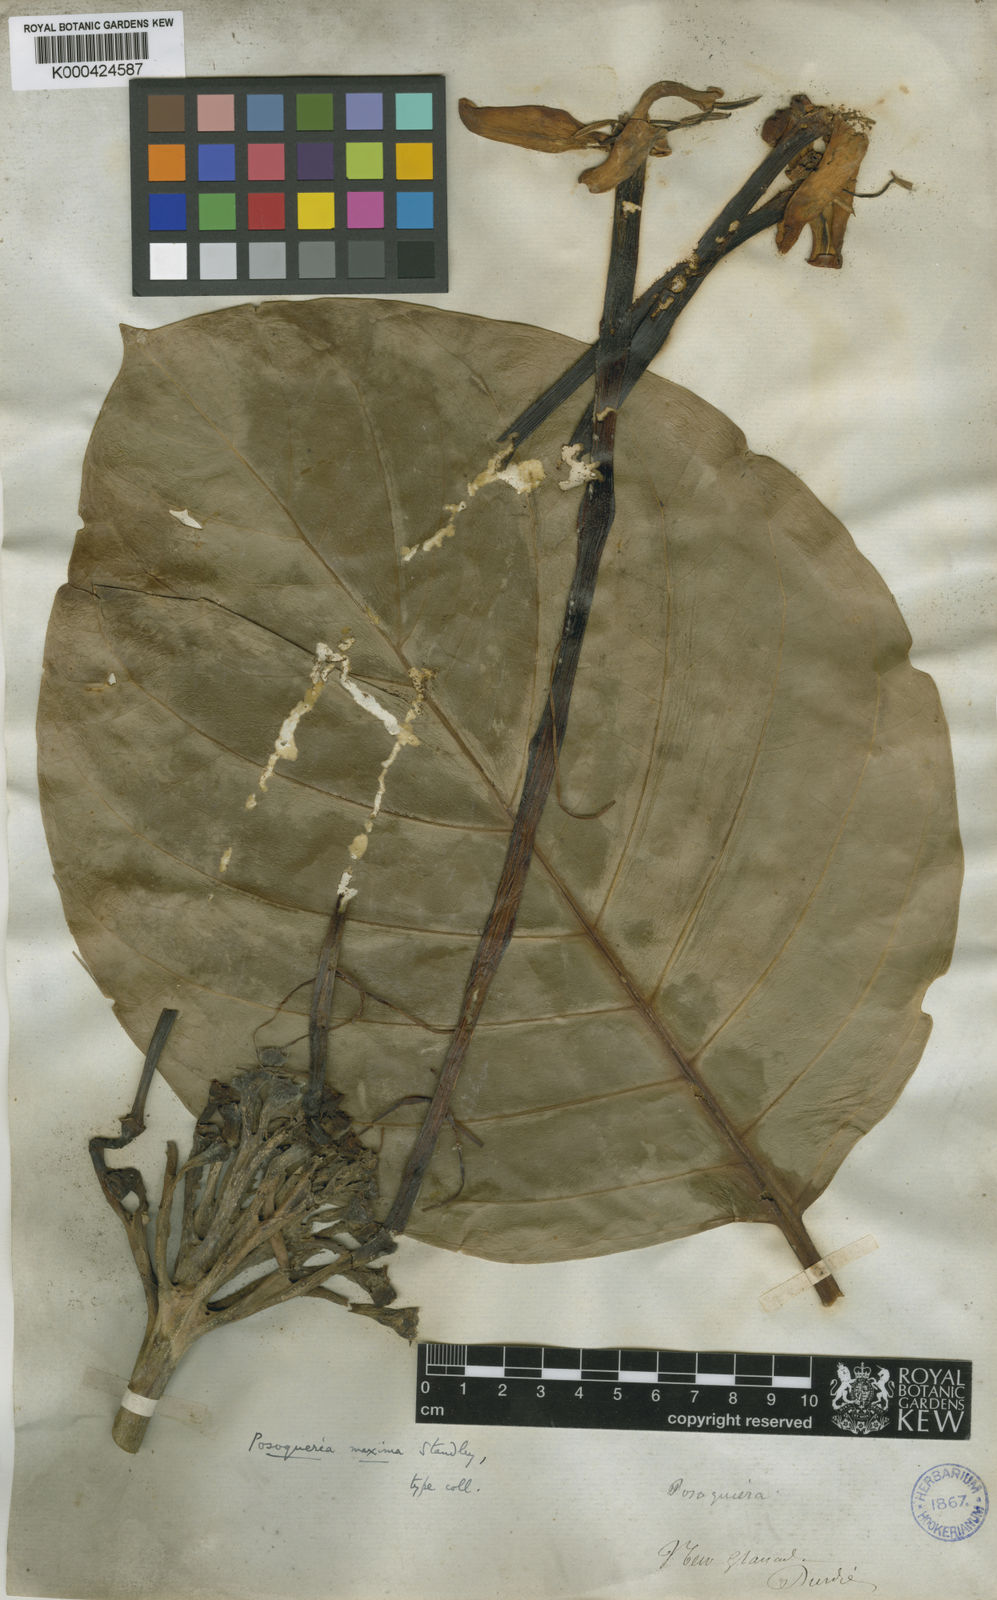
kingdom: Plantae
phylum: Tracheophyta
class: Magnoliopsida
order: Gentianales
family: Rubiaceae
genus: Posoqueria
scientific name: Posoqueria coriacea
